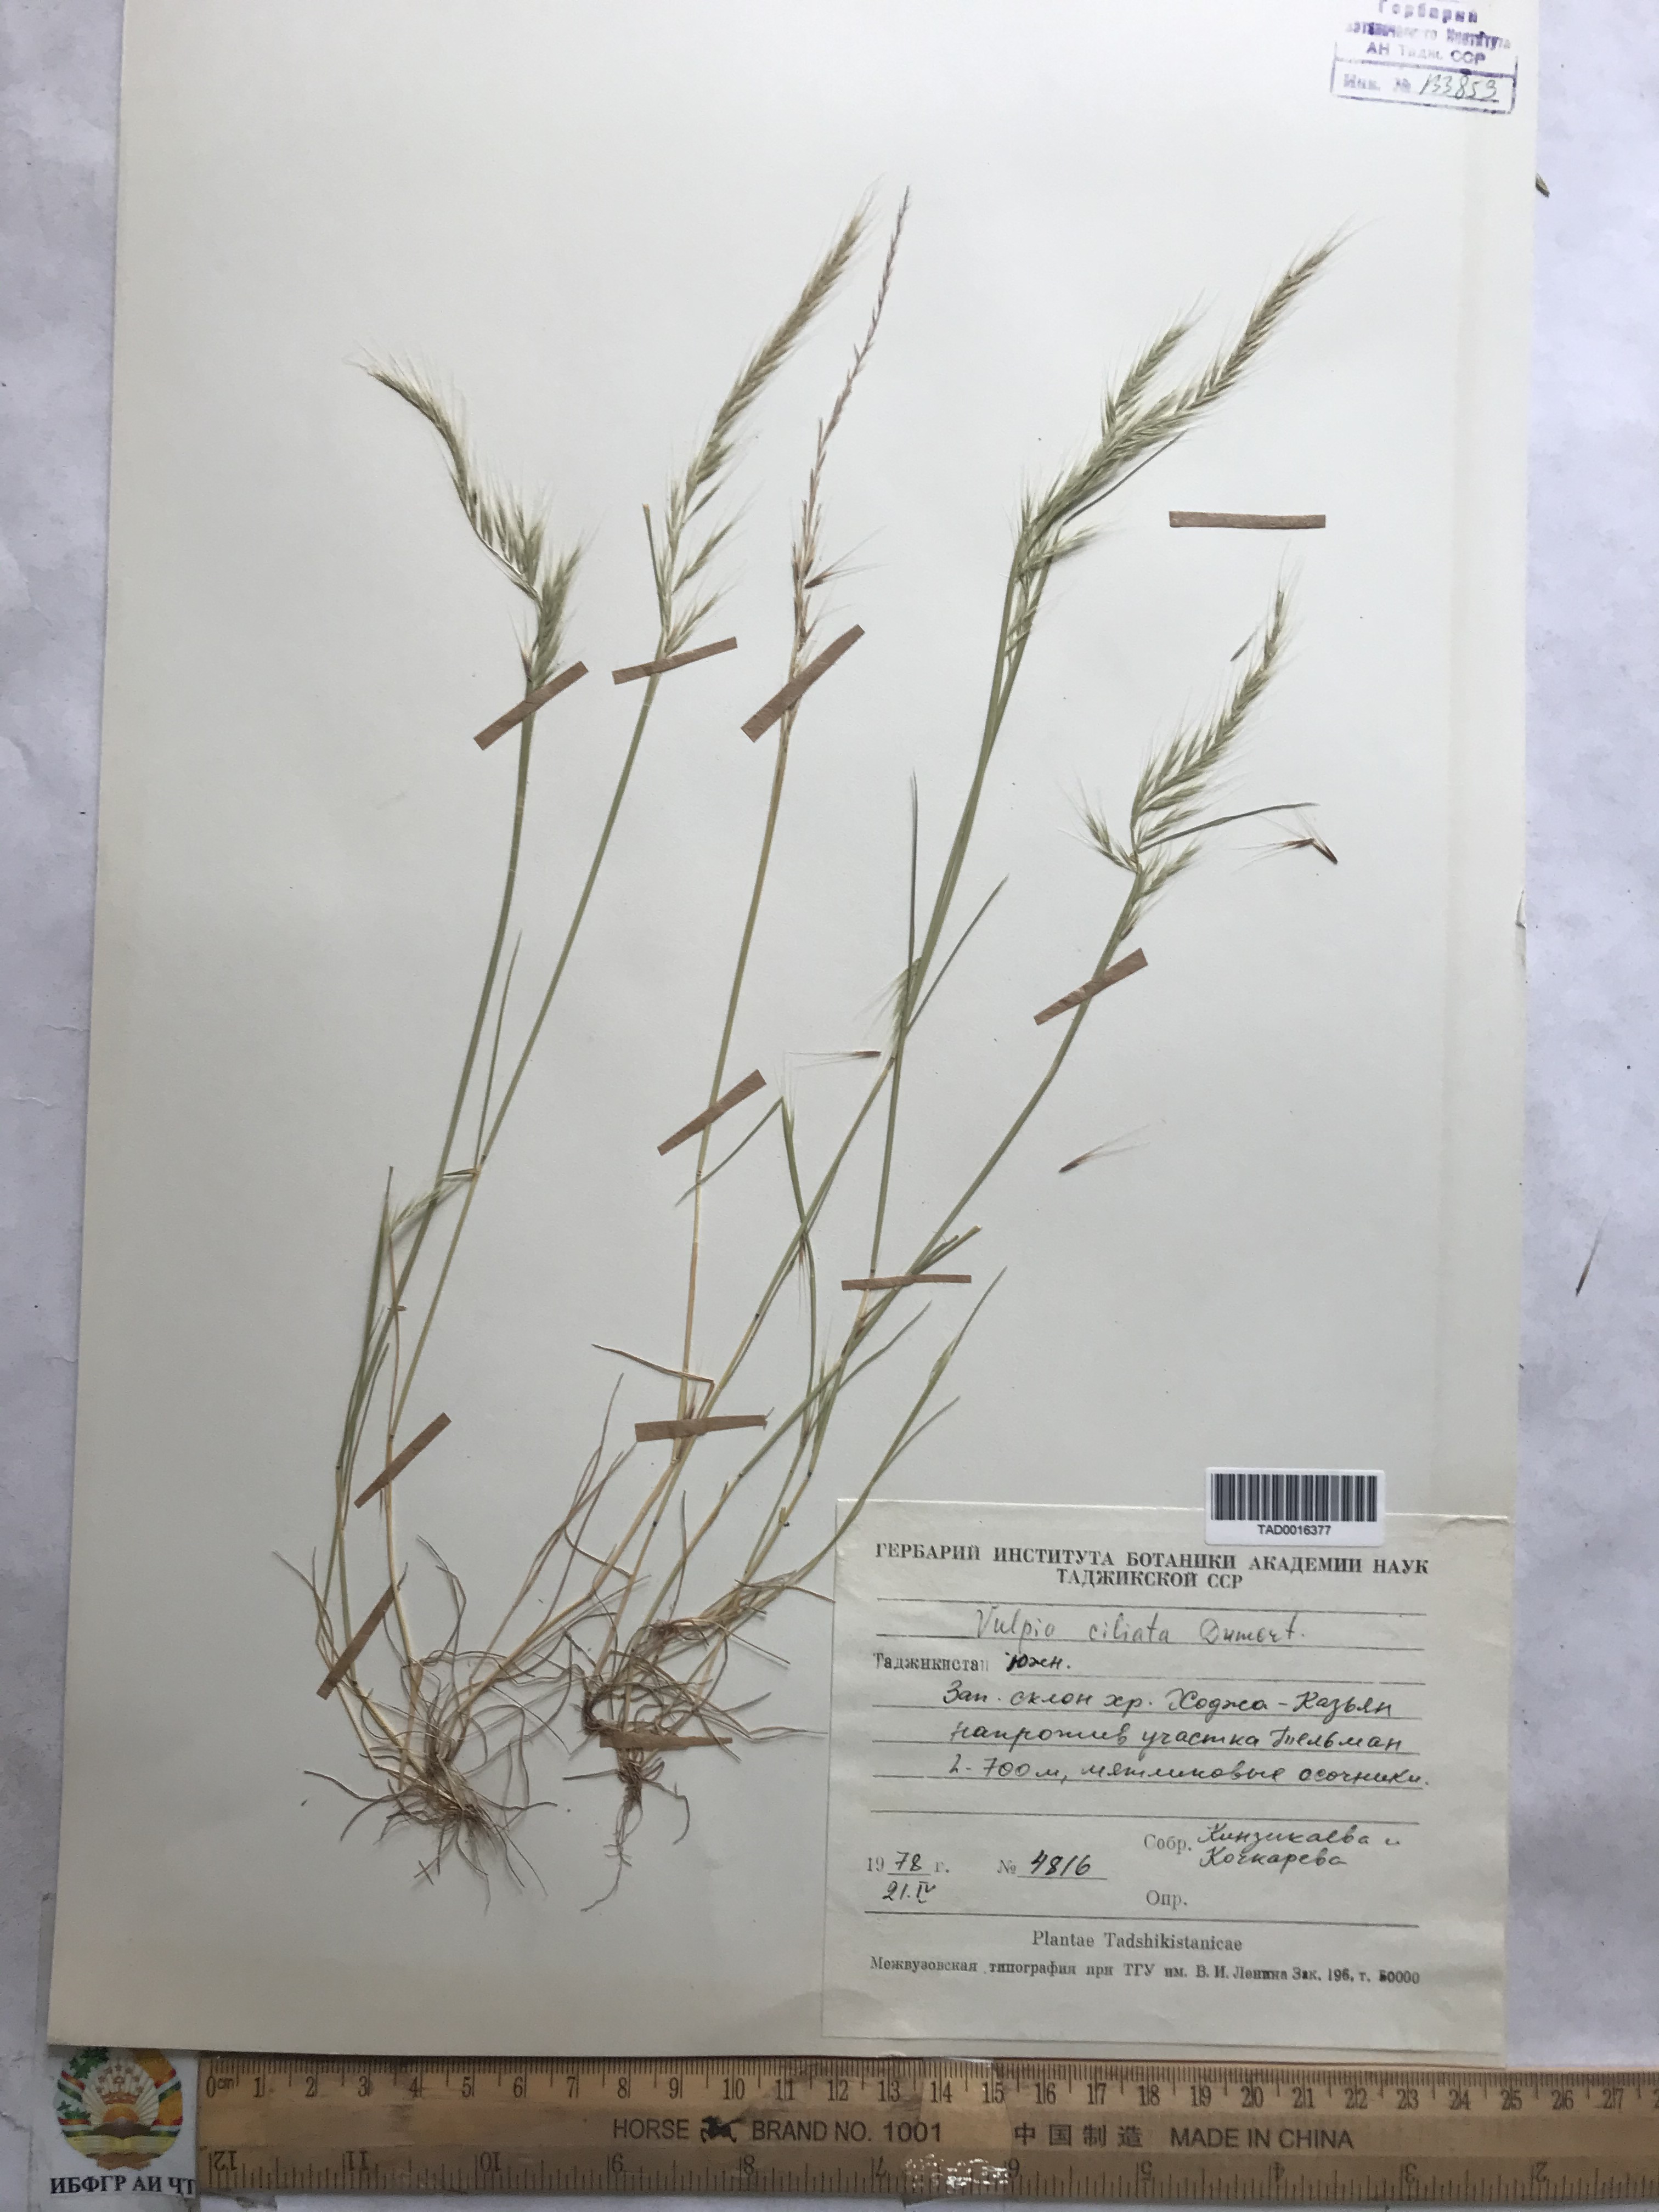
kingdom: Plantae
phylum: Tracheophyta
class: Liliopsida
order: Poales
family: Poaceae
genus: Festuca
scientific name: Festuca ambigua
